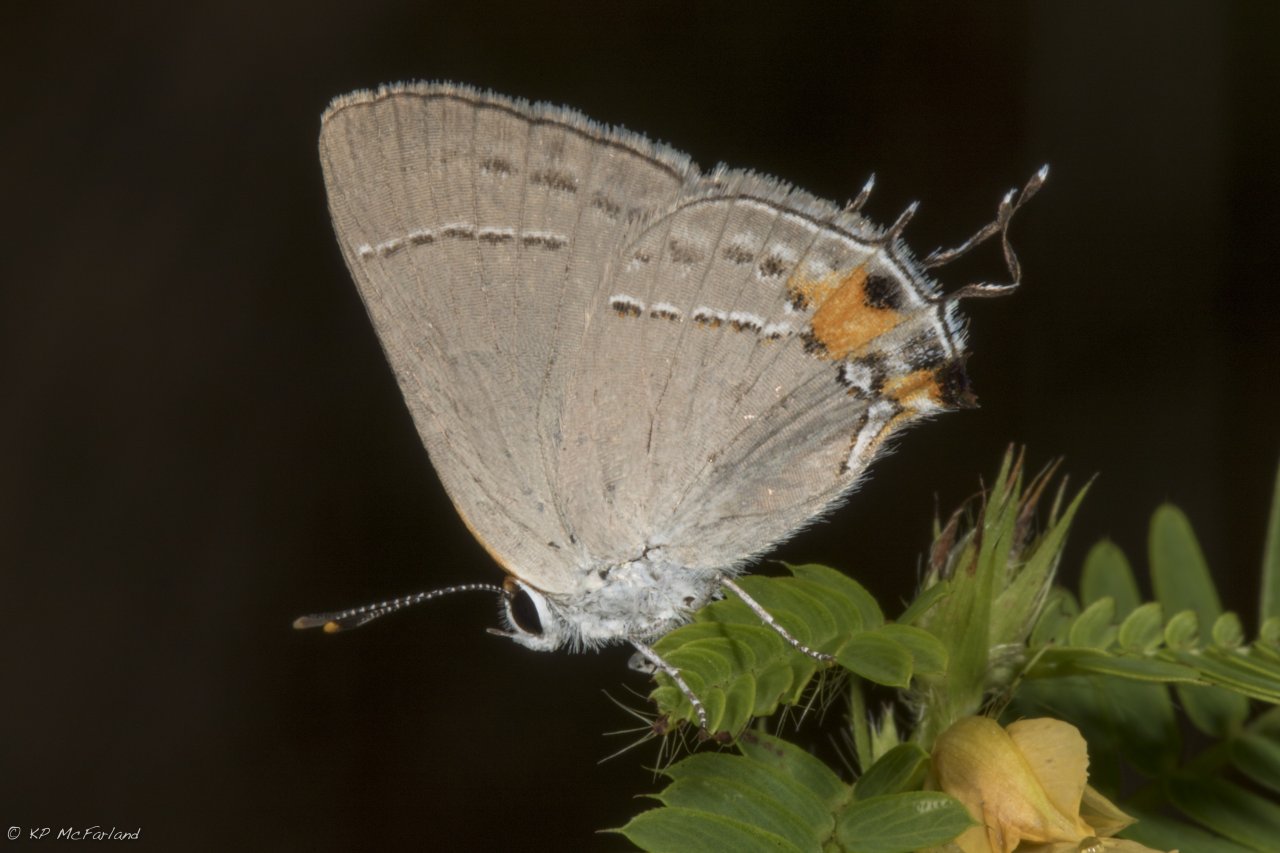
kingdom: Animalia
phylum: Arthropoda
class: Insecta
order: Lepidoptera
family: Lycaenidae
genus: Strymon
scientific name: Strymon melinus
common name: Gray Hairstreak
